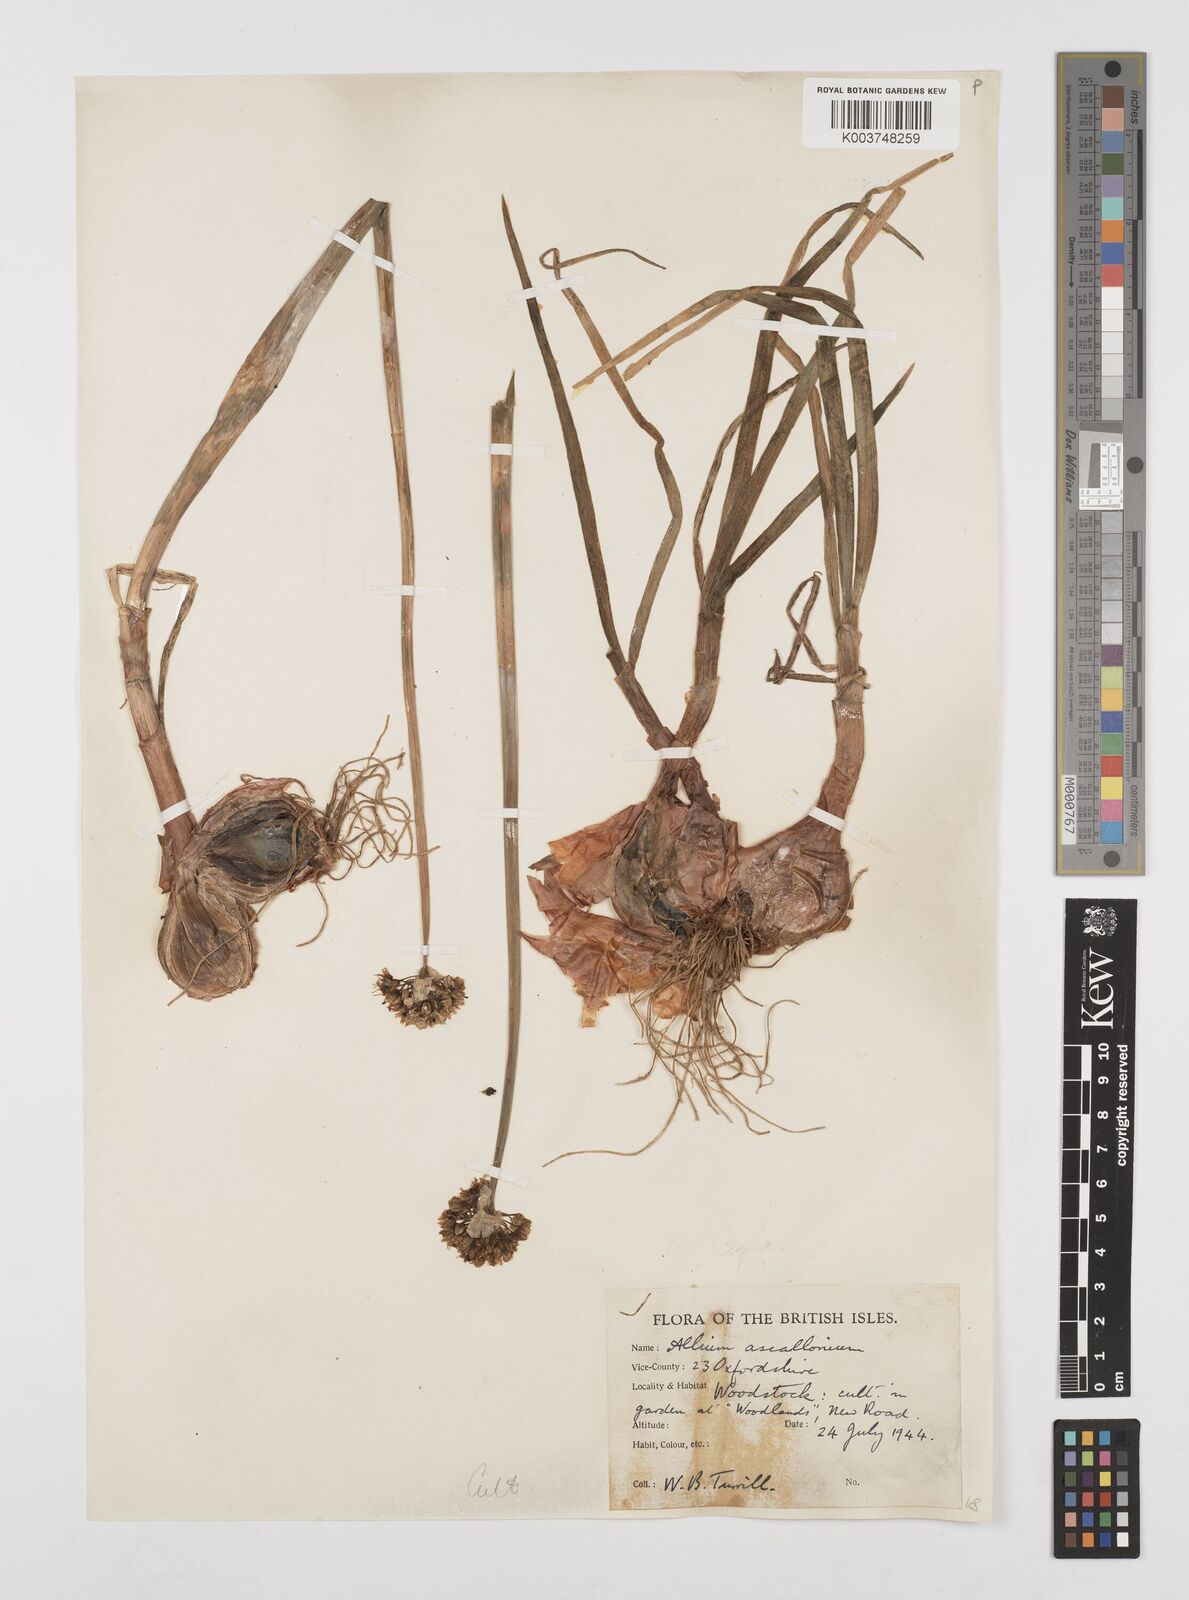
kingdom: Plantae
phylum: Tracheophyta
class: Liliopsida
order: Asparagales
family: Amaryllidaceae
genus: Allium
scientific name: Allium ascalonicum
